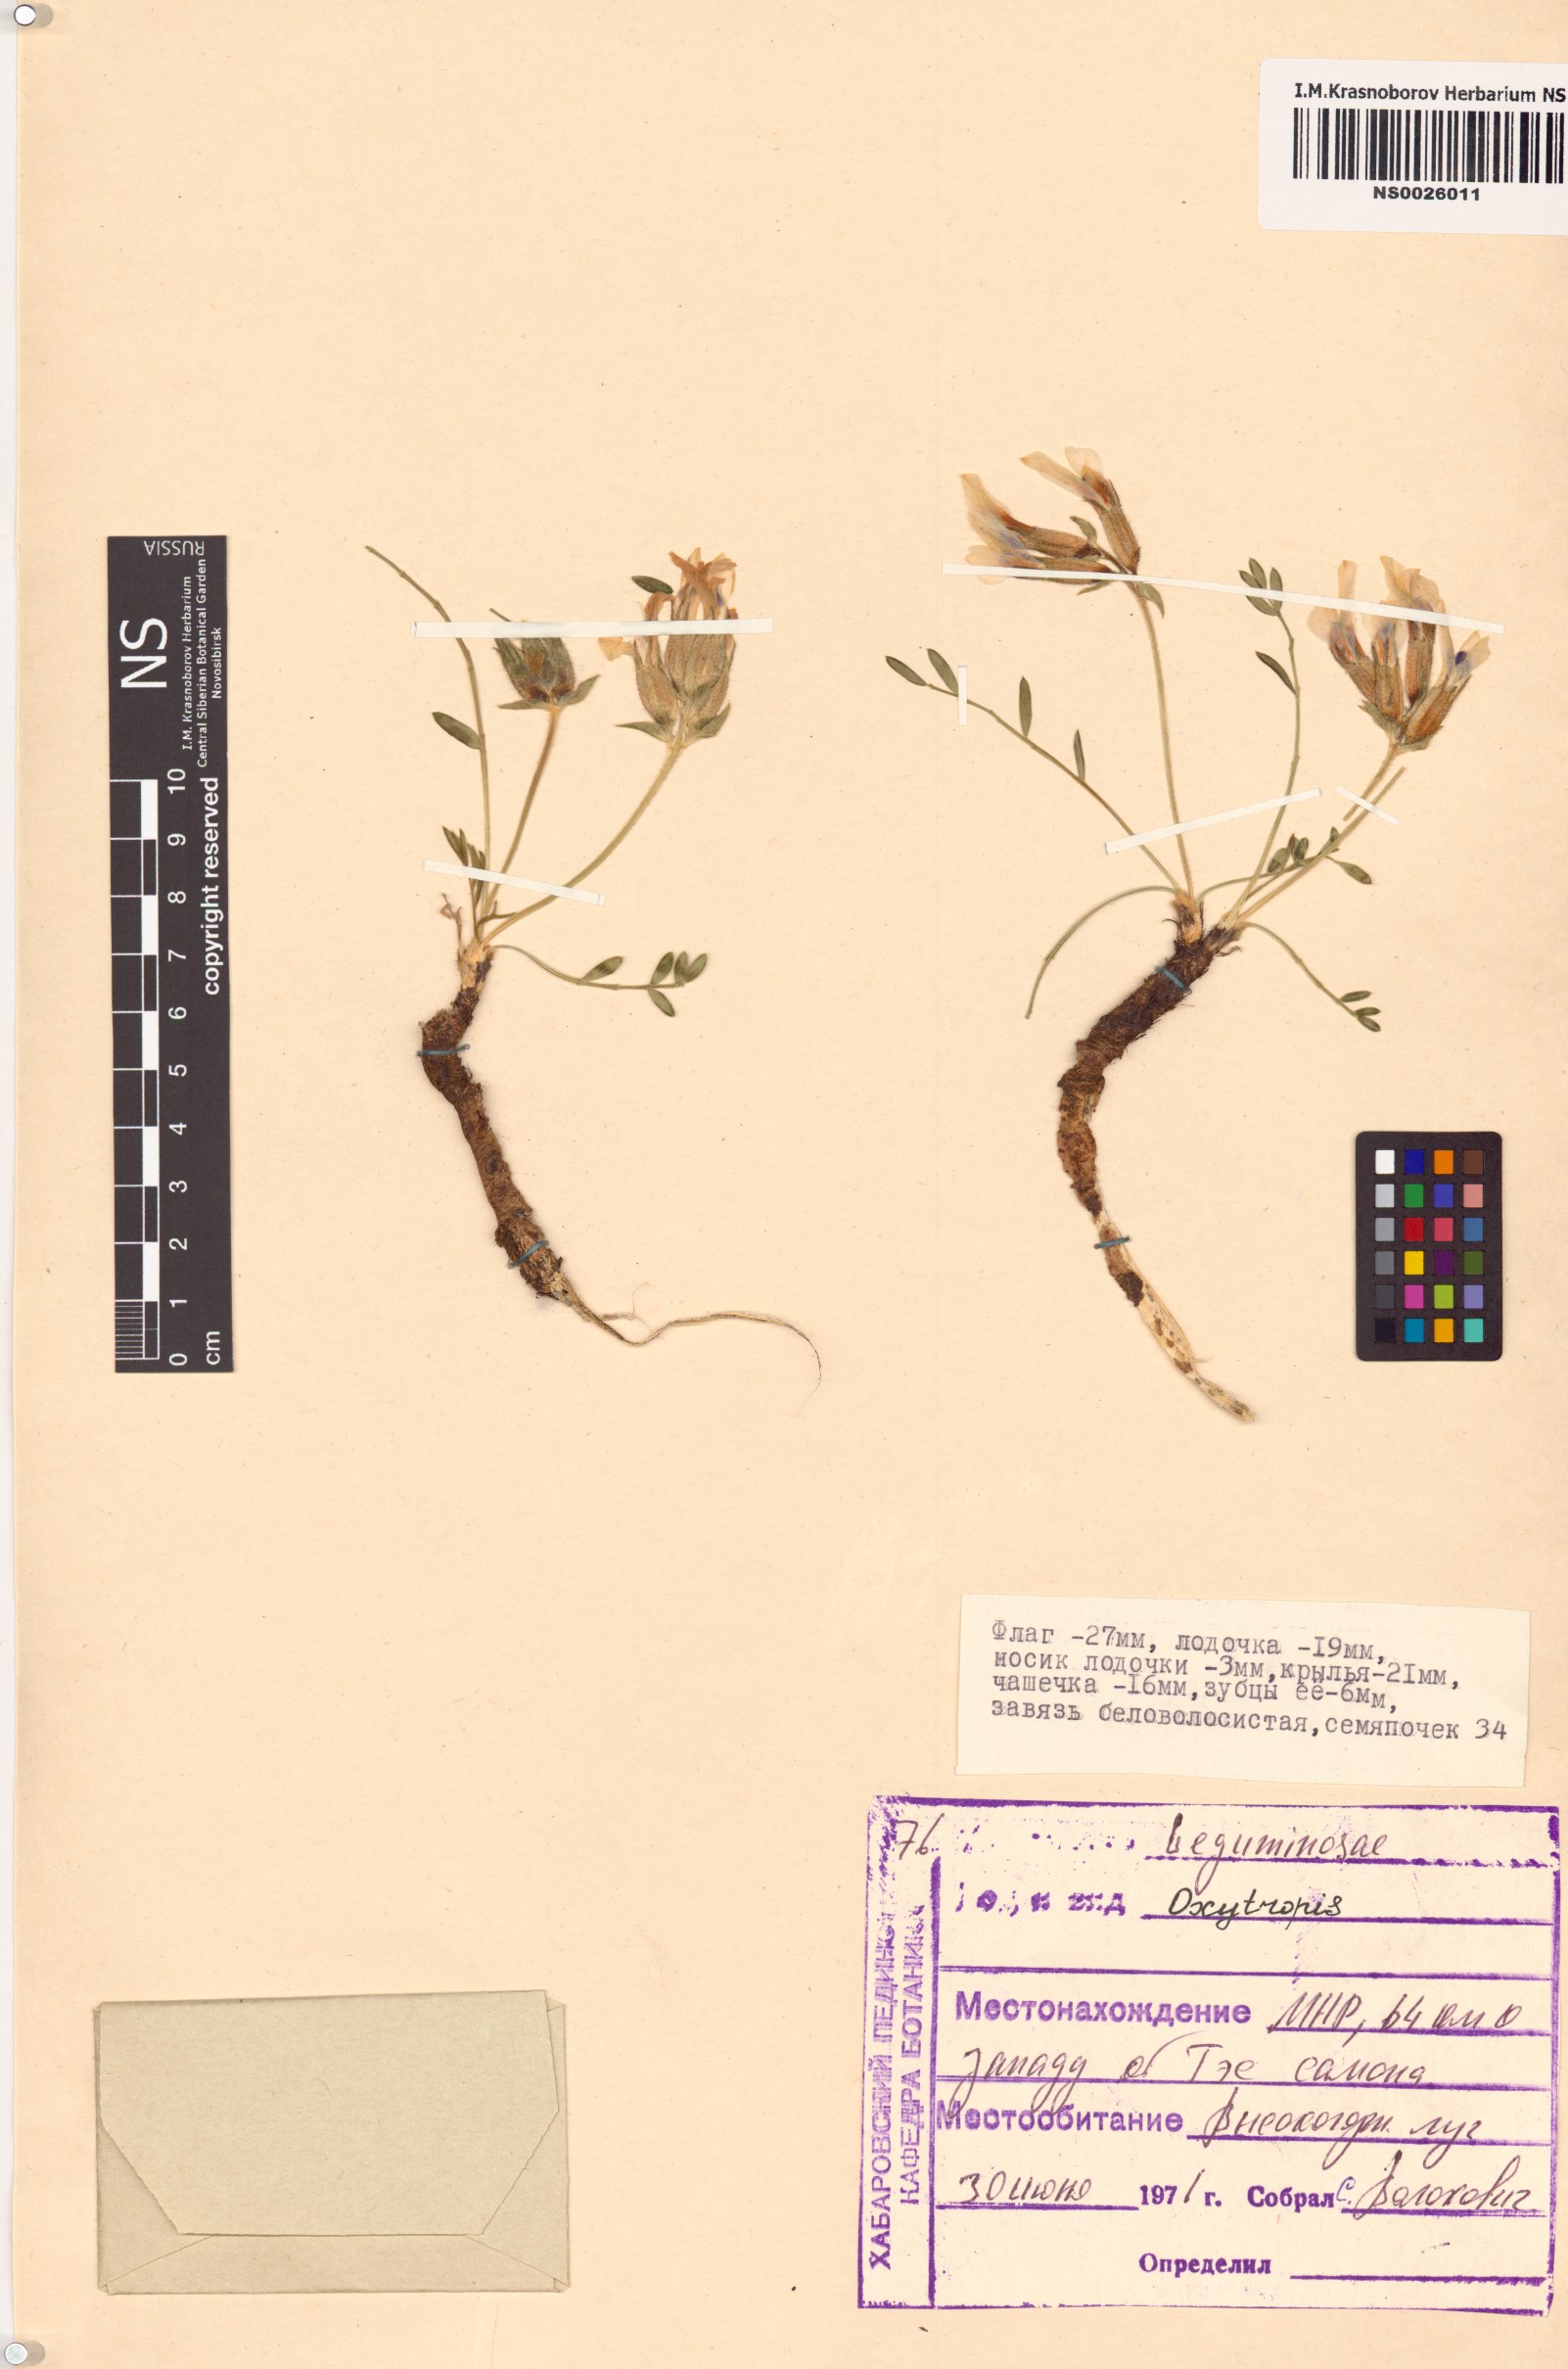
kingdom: Plantae
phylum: Tracheophyta
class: Magnoliopsida
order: Fabales
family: Fabaceae
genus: Oxytropis
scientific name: Oxytropis
